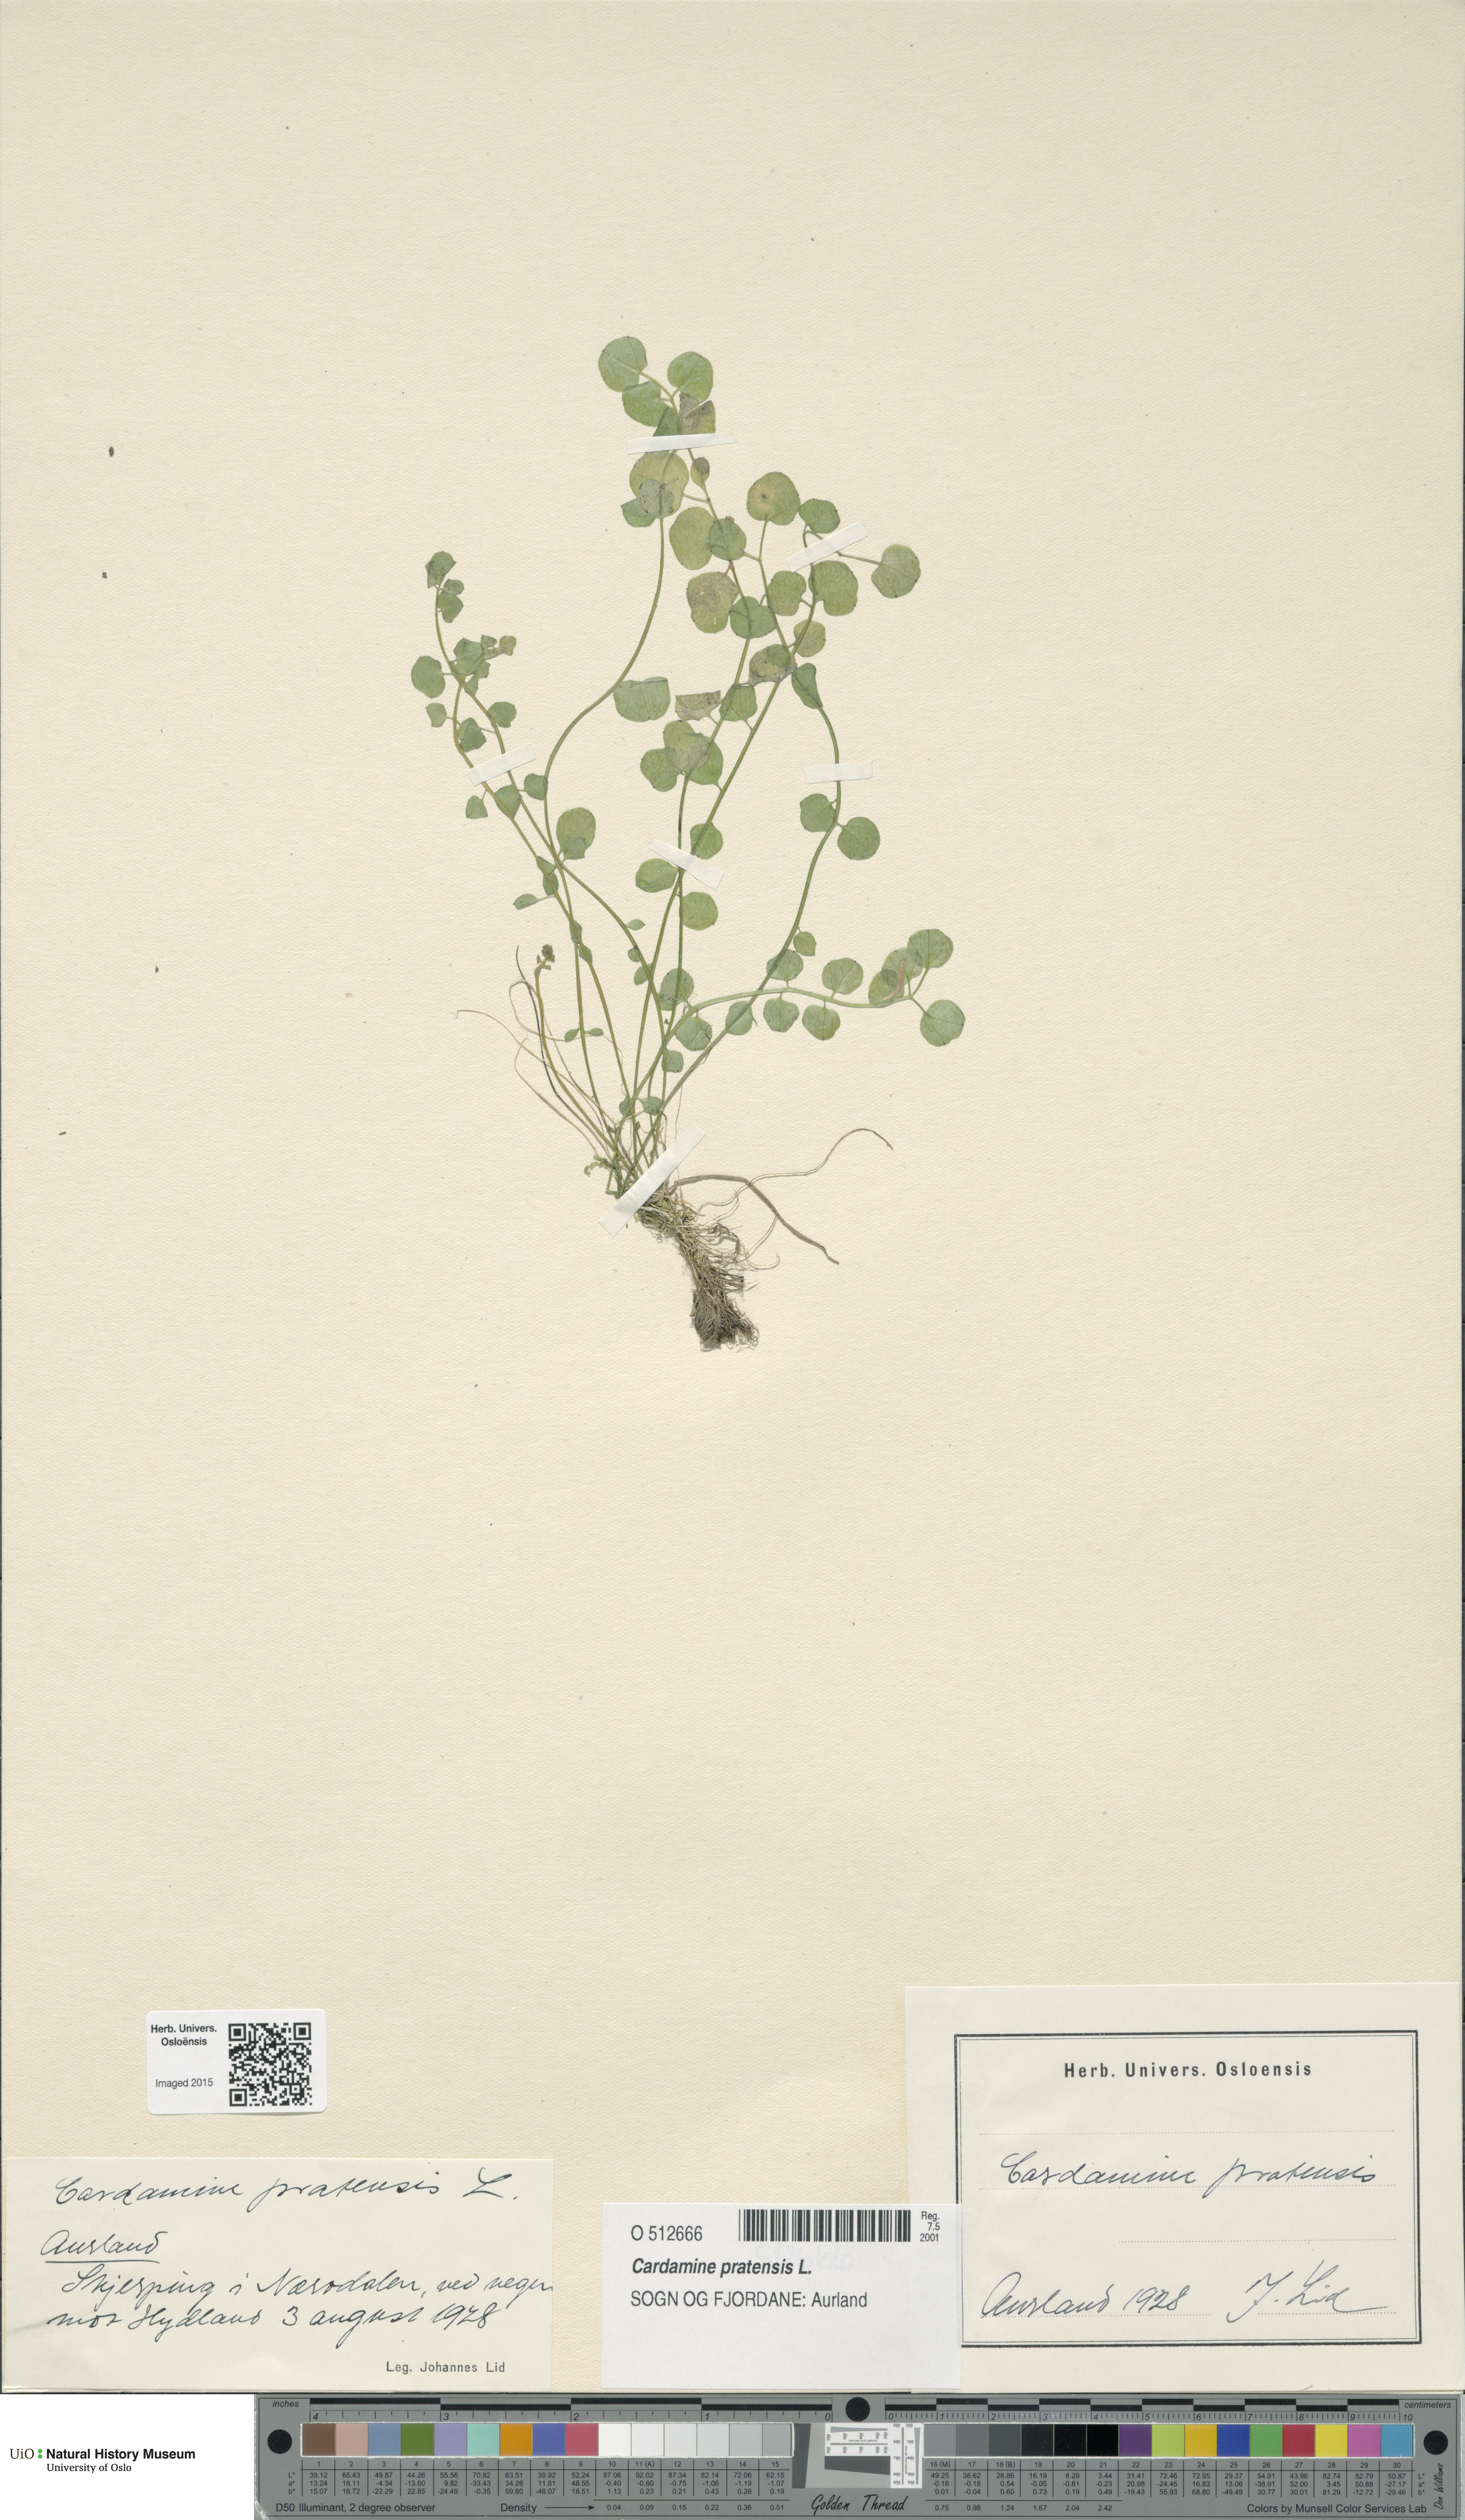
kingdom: Plantae
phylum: Tracheophyta
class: Magnoliopsida
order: Brassicales
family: Brassicaceae
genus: Cardamine
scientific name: Cardamine pratensis
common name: Cuckoo flower
